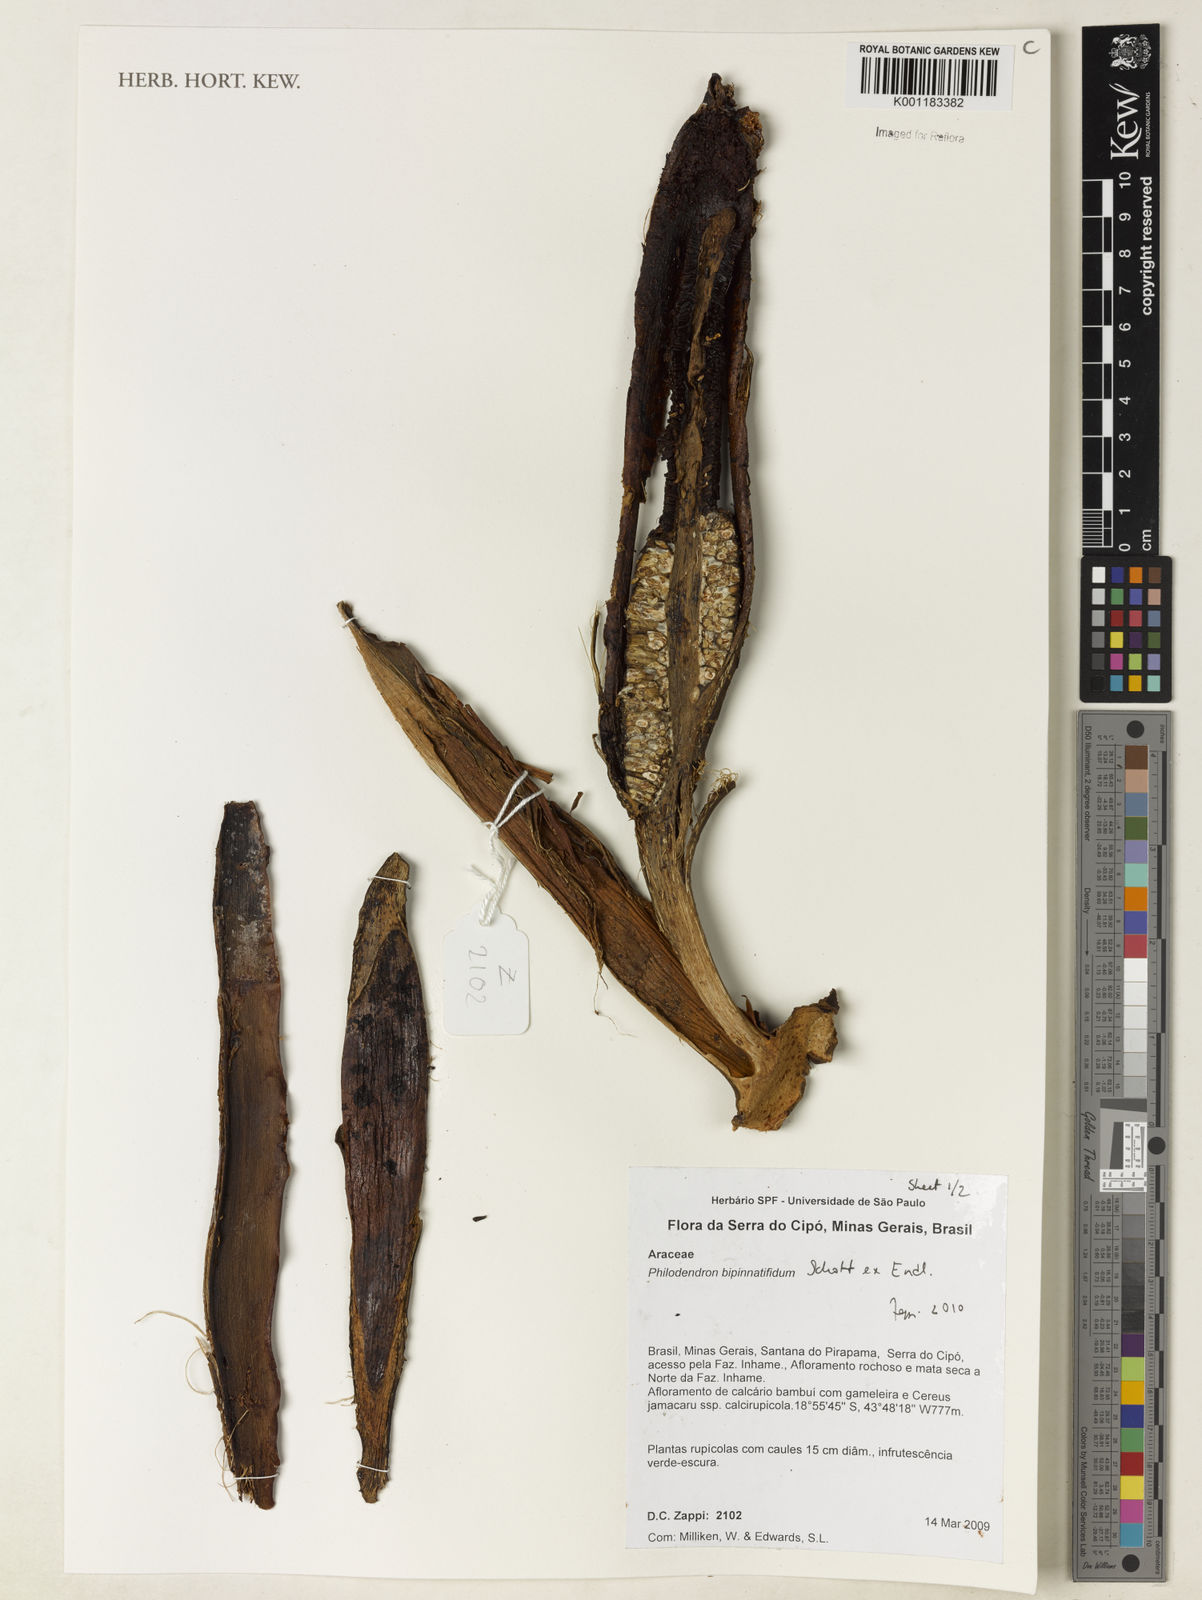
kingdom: Plantae
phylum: Tracheophyta
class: Liliopsida
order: Alismatales
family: Araceae
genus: Philodendron
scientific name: Philodendron
